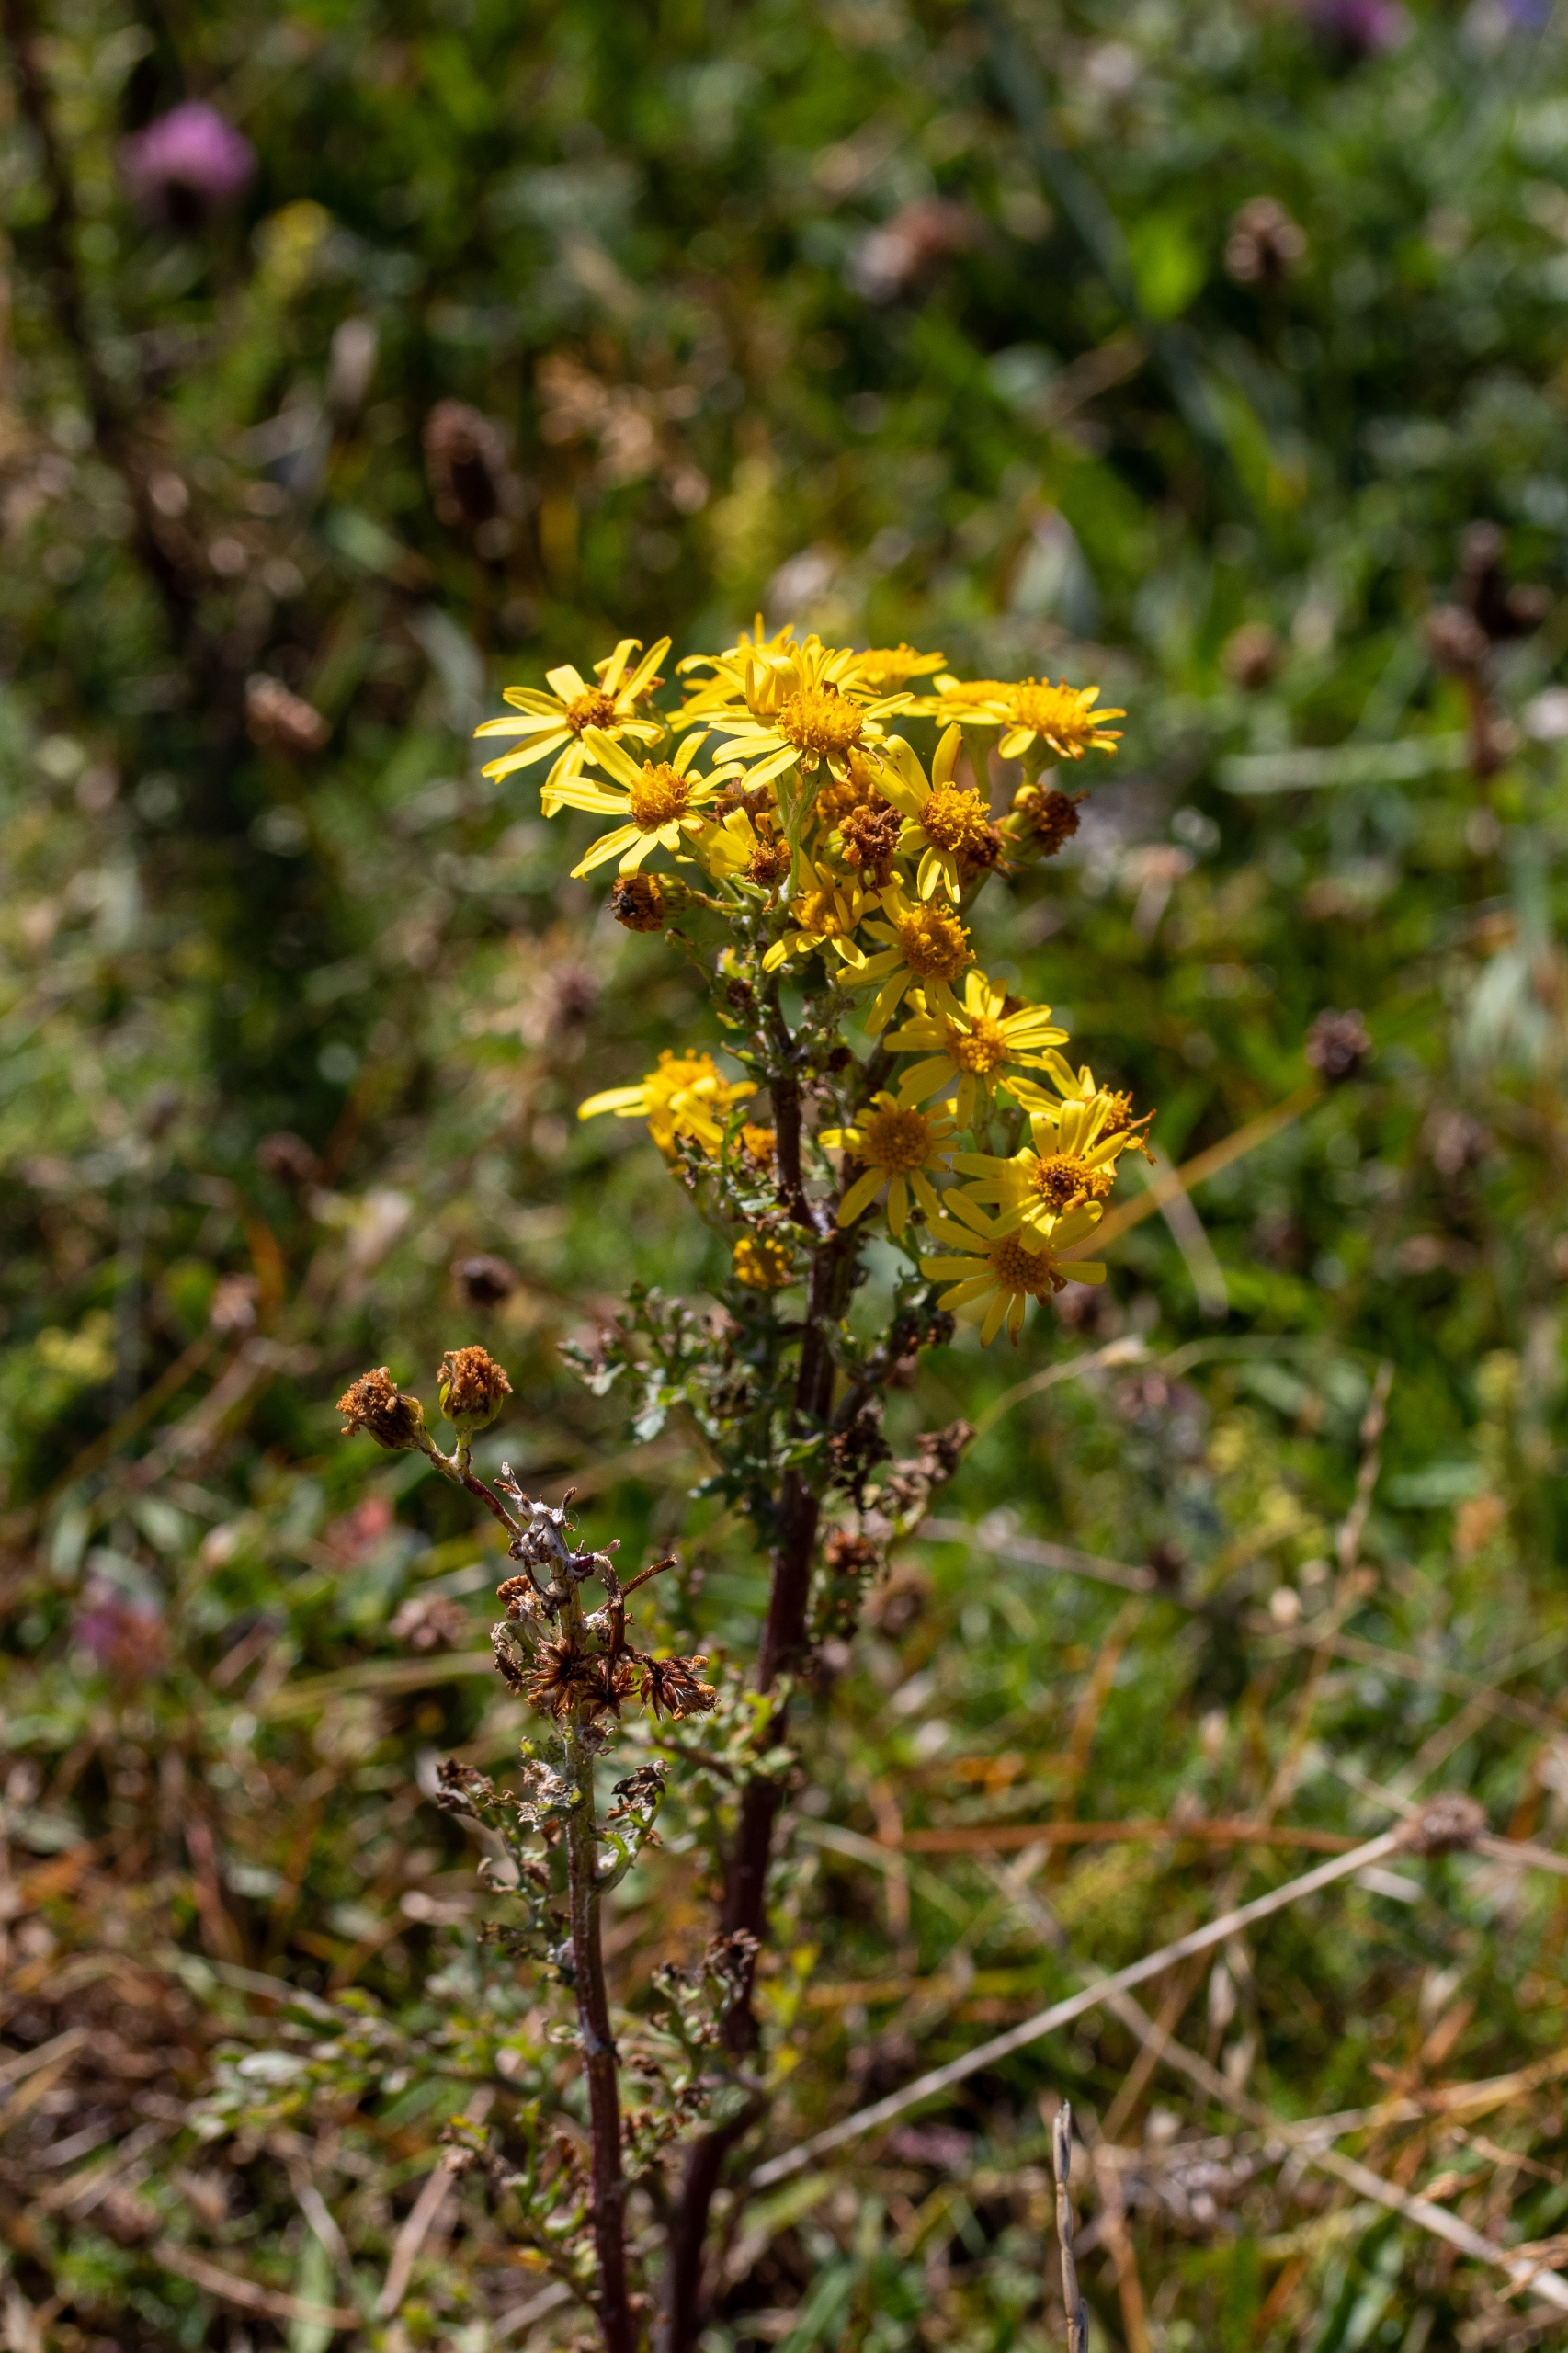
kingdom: Plantae
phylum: Tracheophyta
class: Magnoliopsida
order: Asterales
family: Asteraceae
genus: Jacobaea
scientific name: Jacobaea vulgaris
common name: Eng-brandbæger
